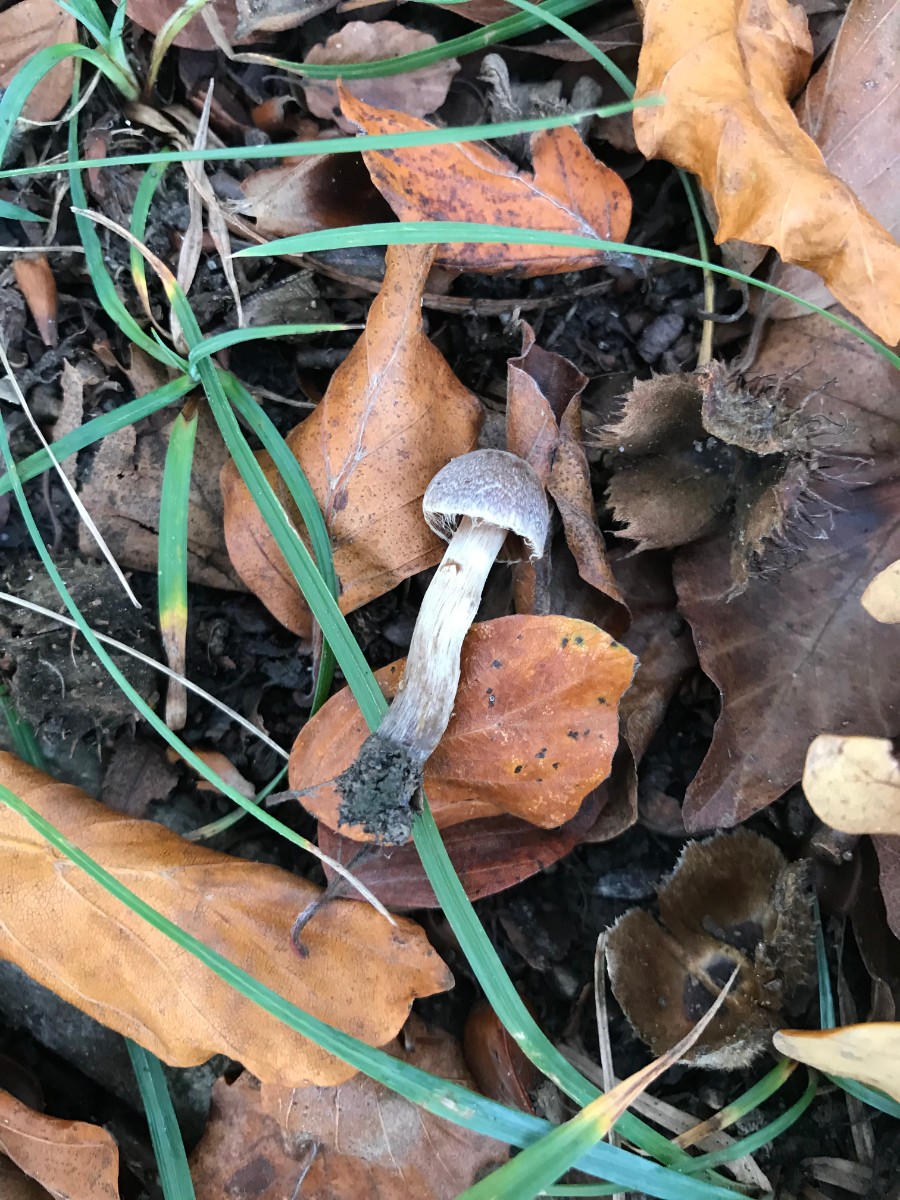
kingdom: Fungi
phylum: Basidiomycota
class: Agaricomycetes
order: Agaricales
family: Cortinariaceae
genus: Cortinarius
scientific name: Cortinarius
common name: pelargonie-slørhat
